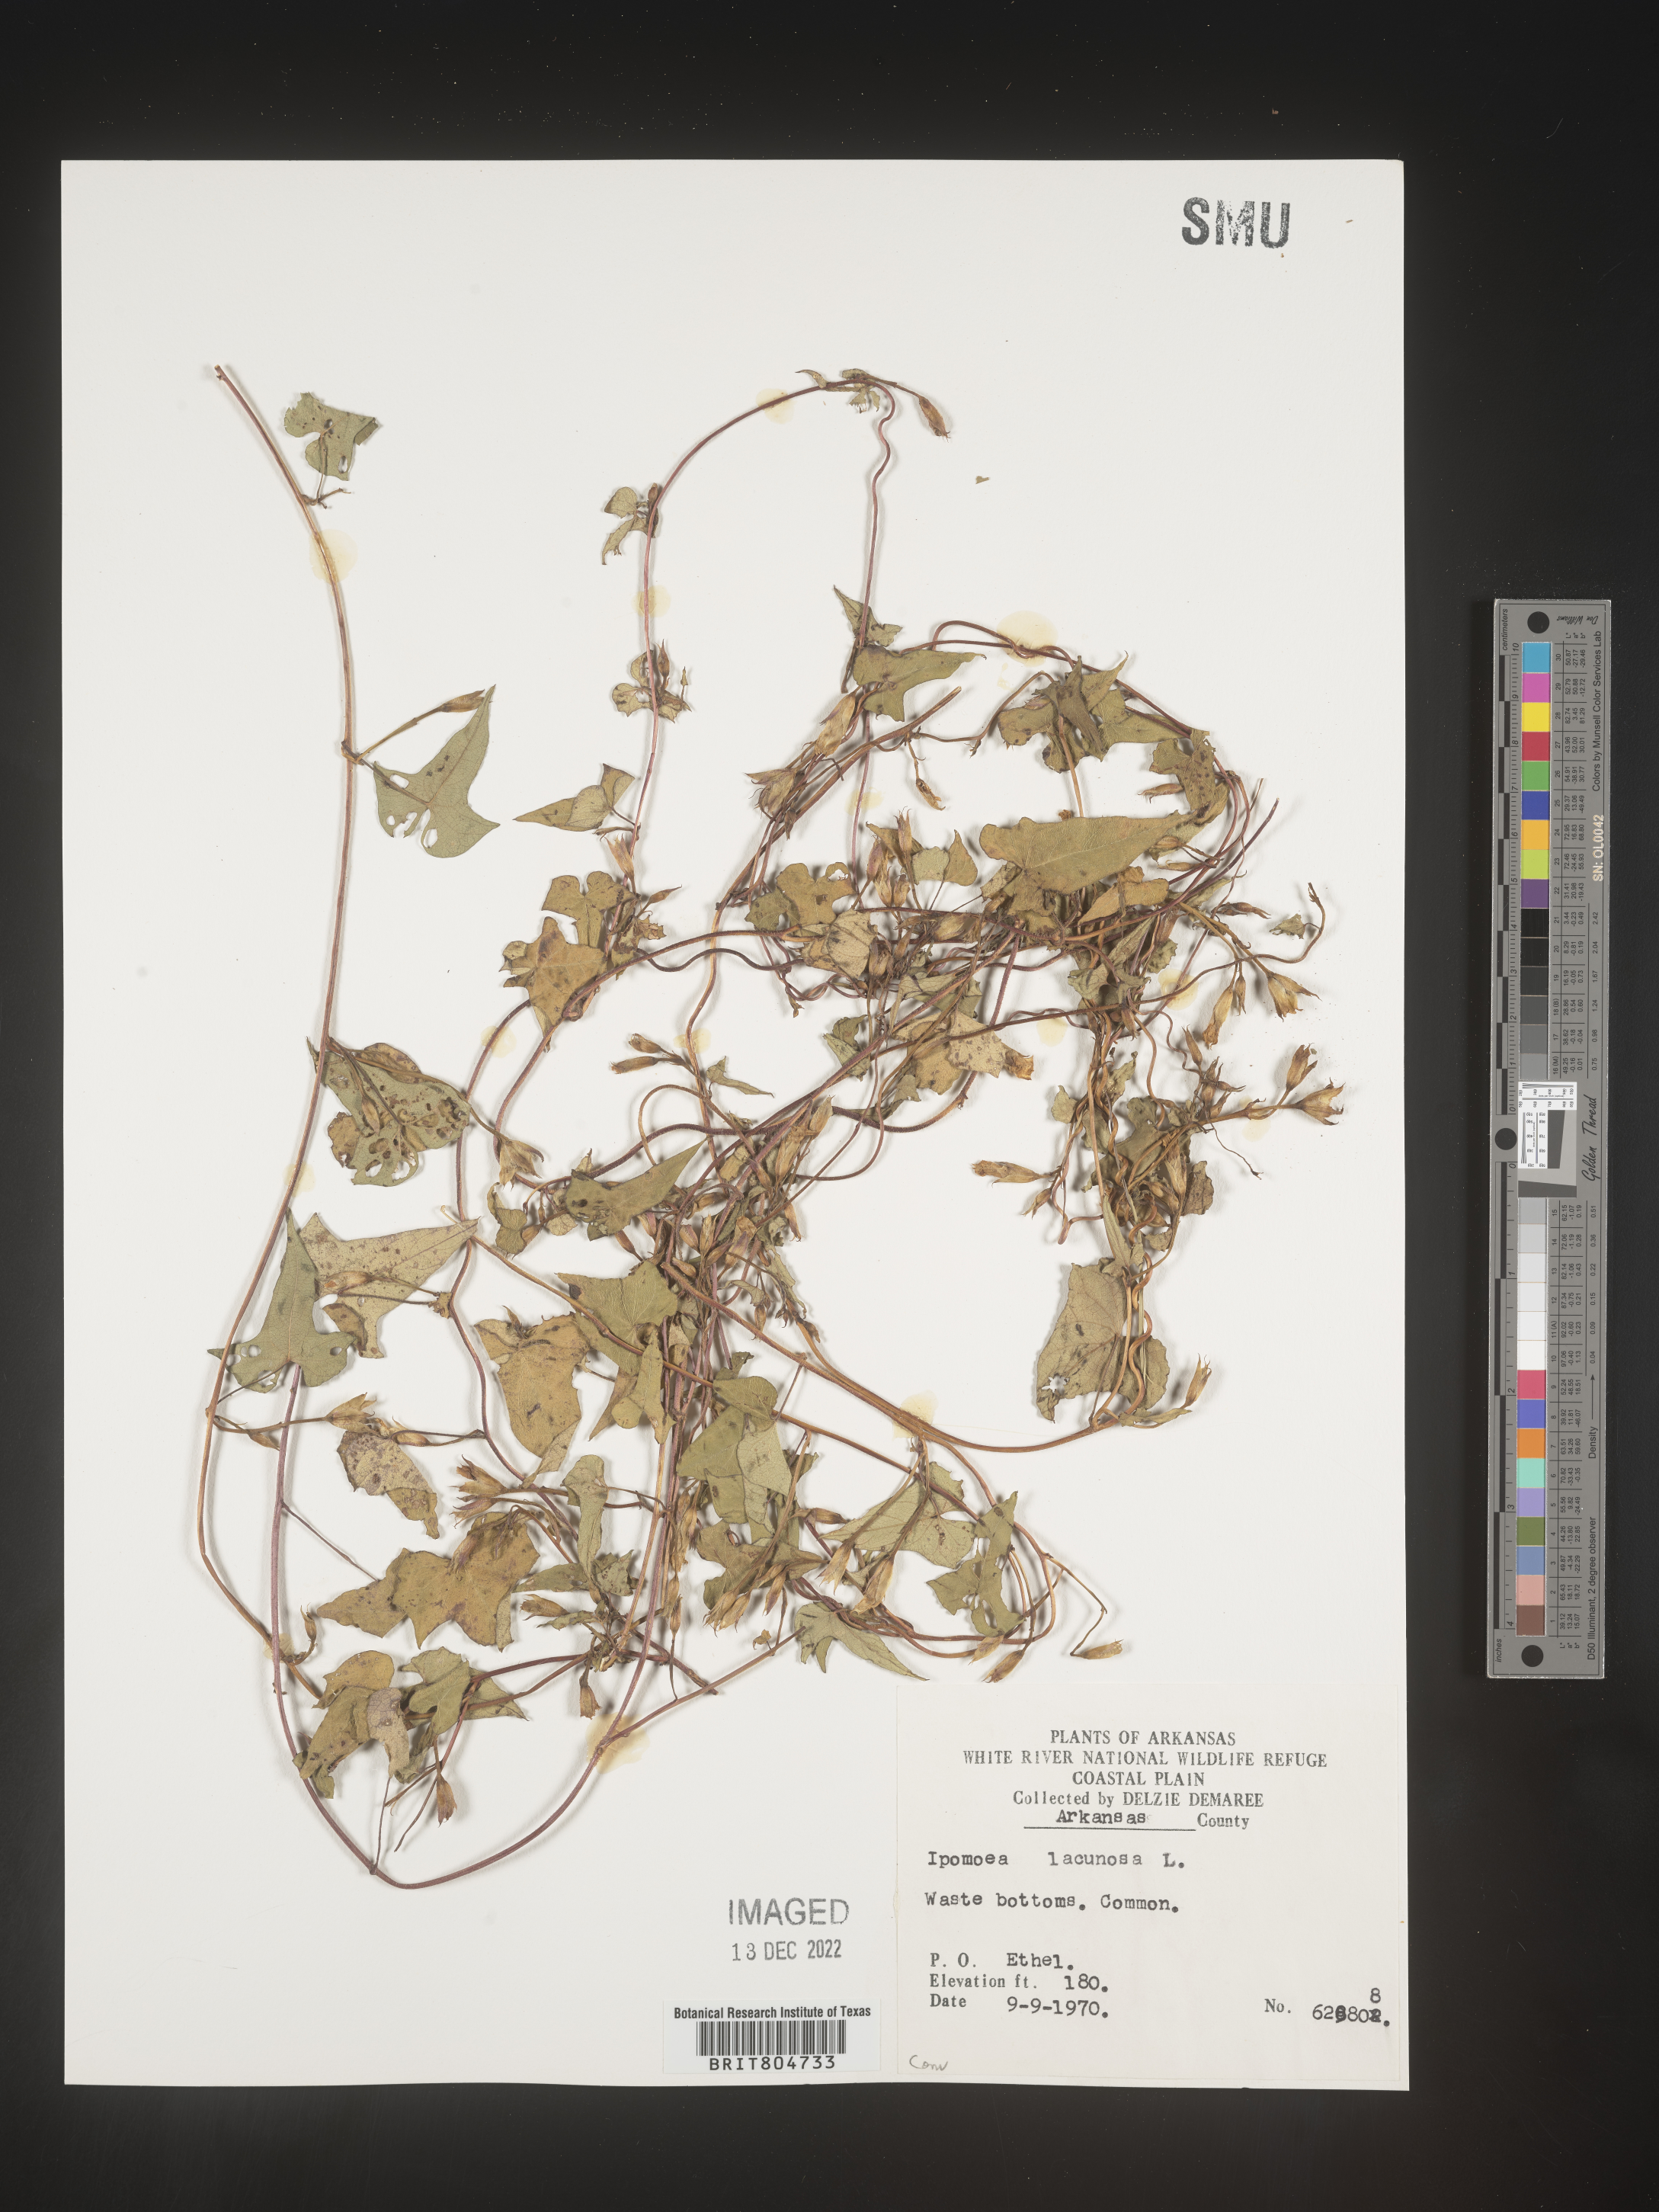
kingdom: Plantae
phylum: Tracheophyta
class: Magnoliopsida
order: Solanales
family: Convolvulaceae
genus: Ipomoea
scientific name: Ipomoea lacunosa
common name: White morning-glory
